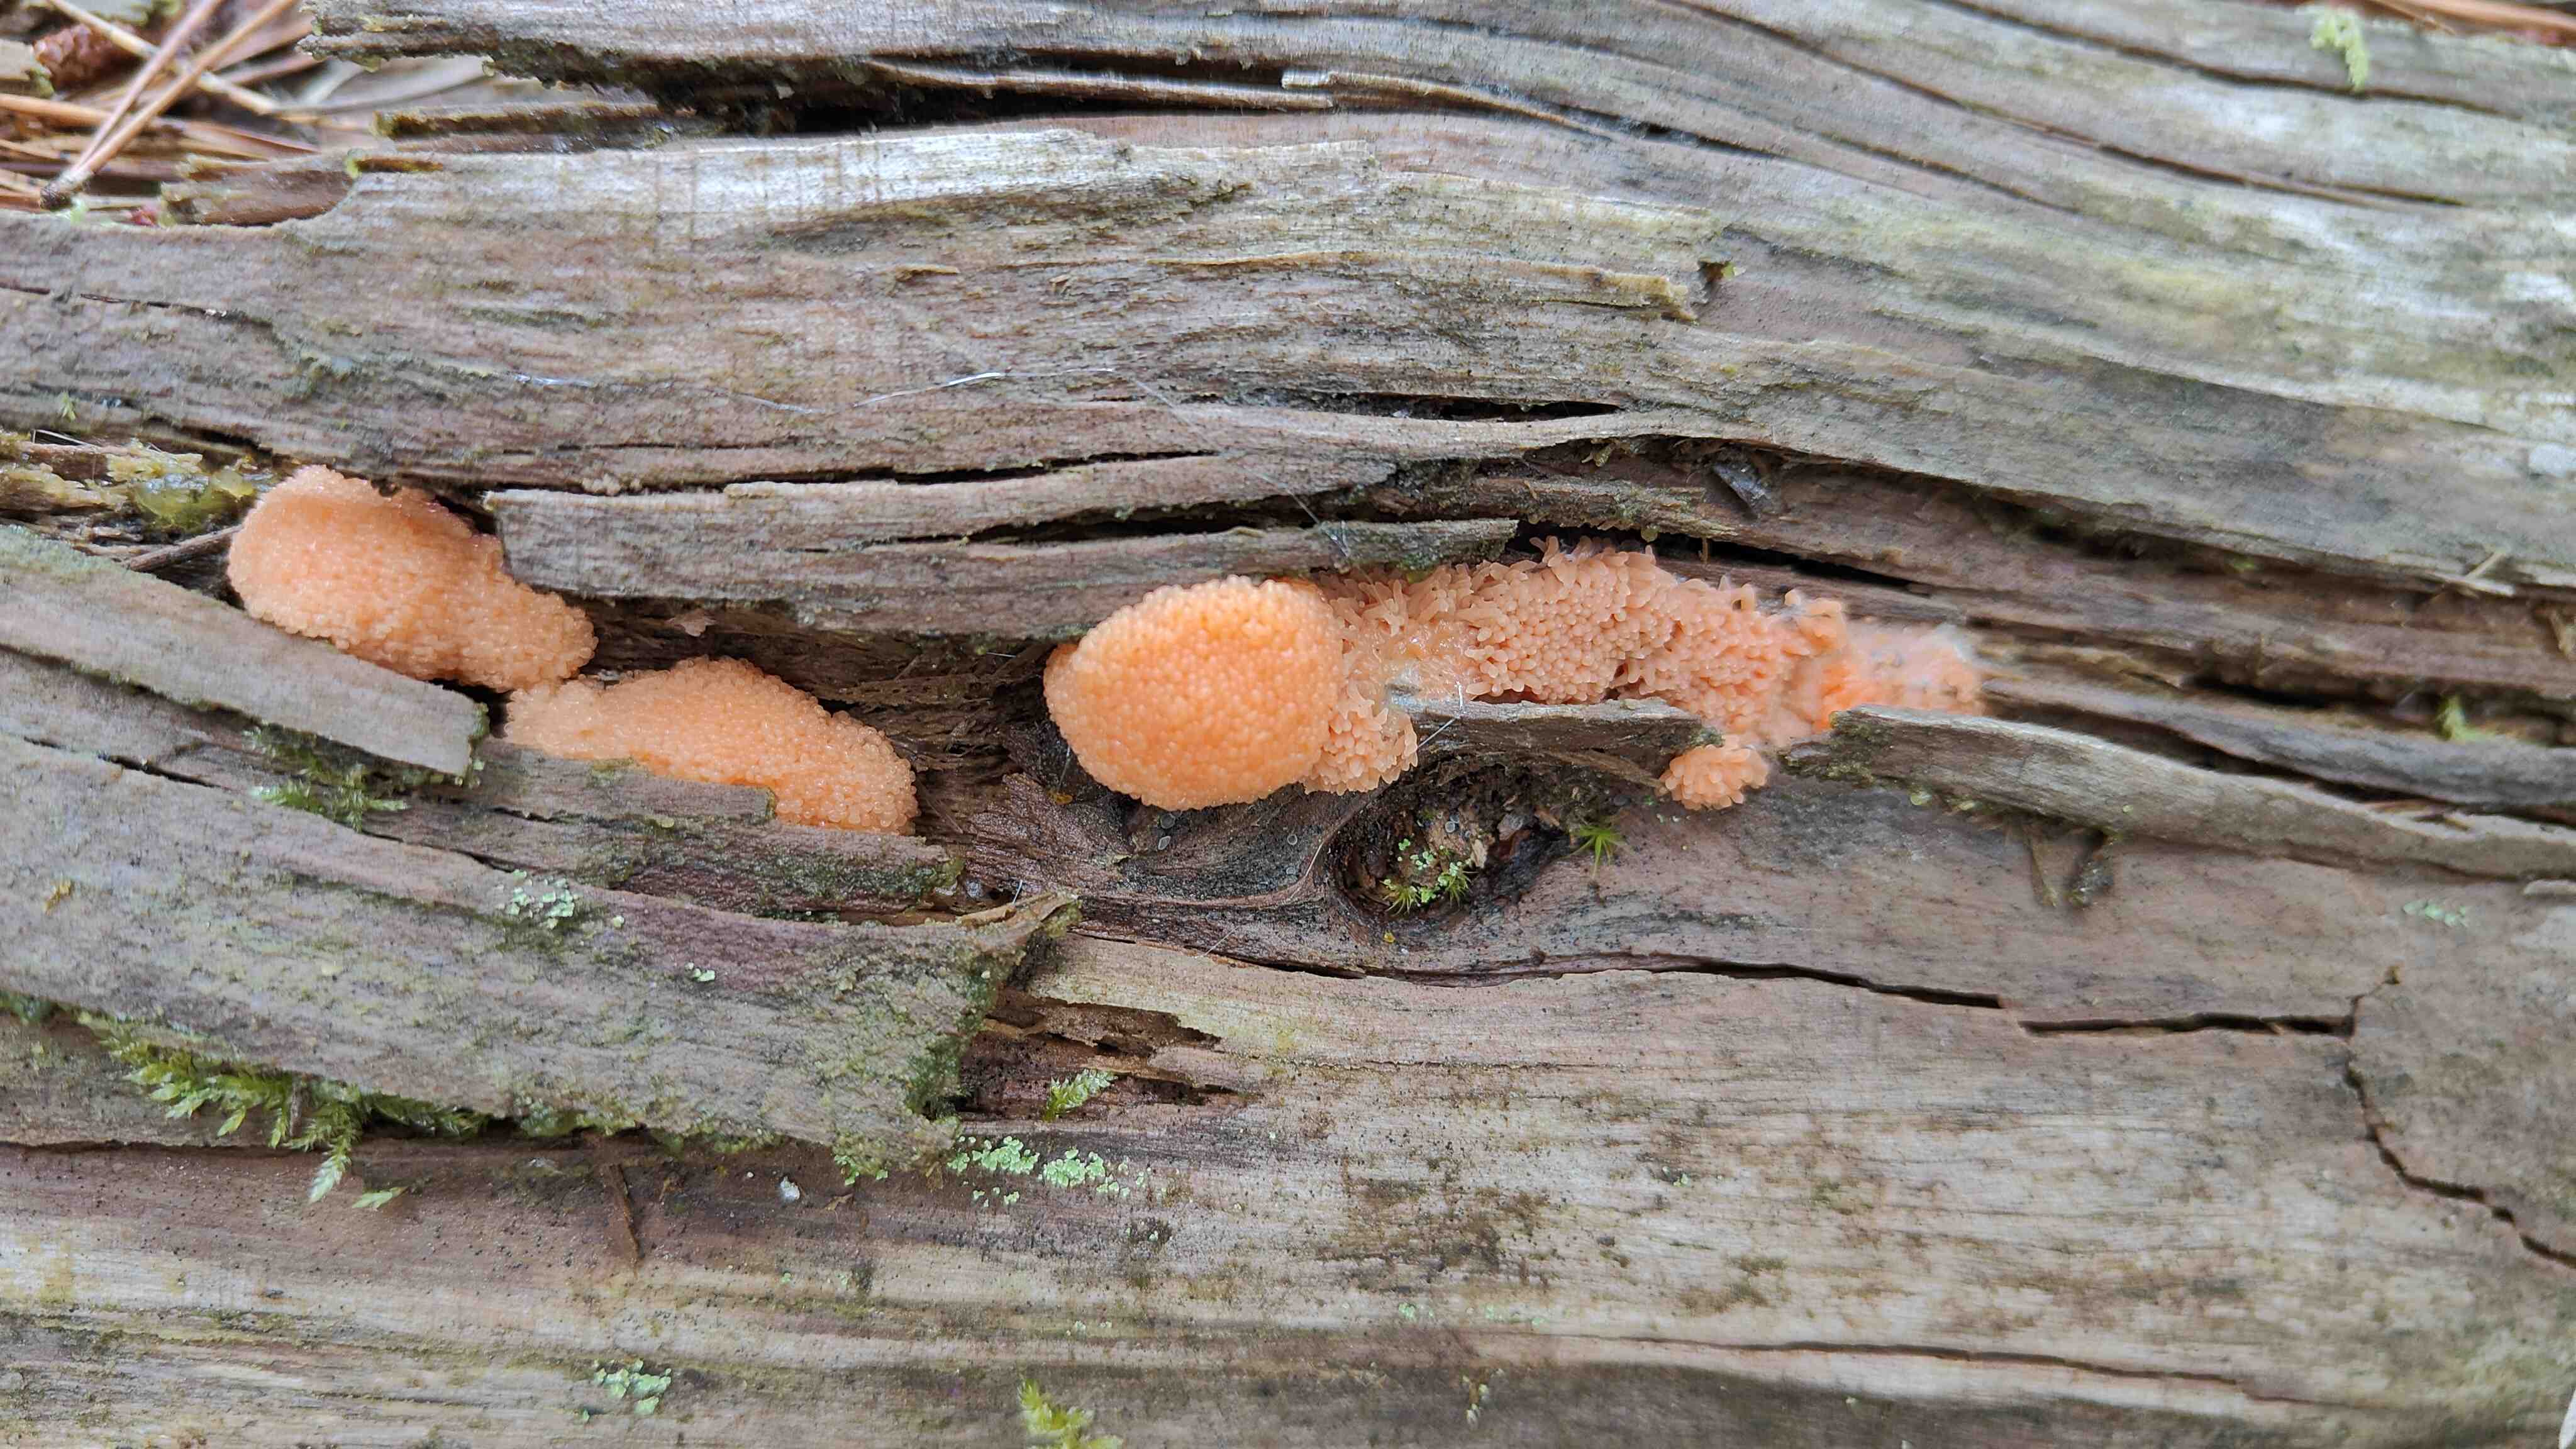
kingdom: Protozoa
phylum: Mycetozoa
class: Myxomycetes
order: Cribrariales
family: Tubiferaceae
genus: Tubifera
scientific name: Tubifera ferruginosa
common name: kanel-støvrør
